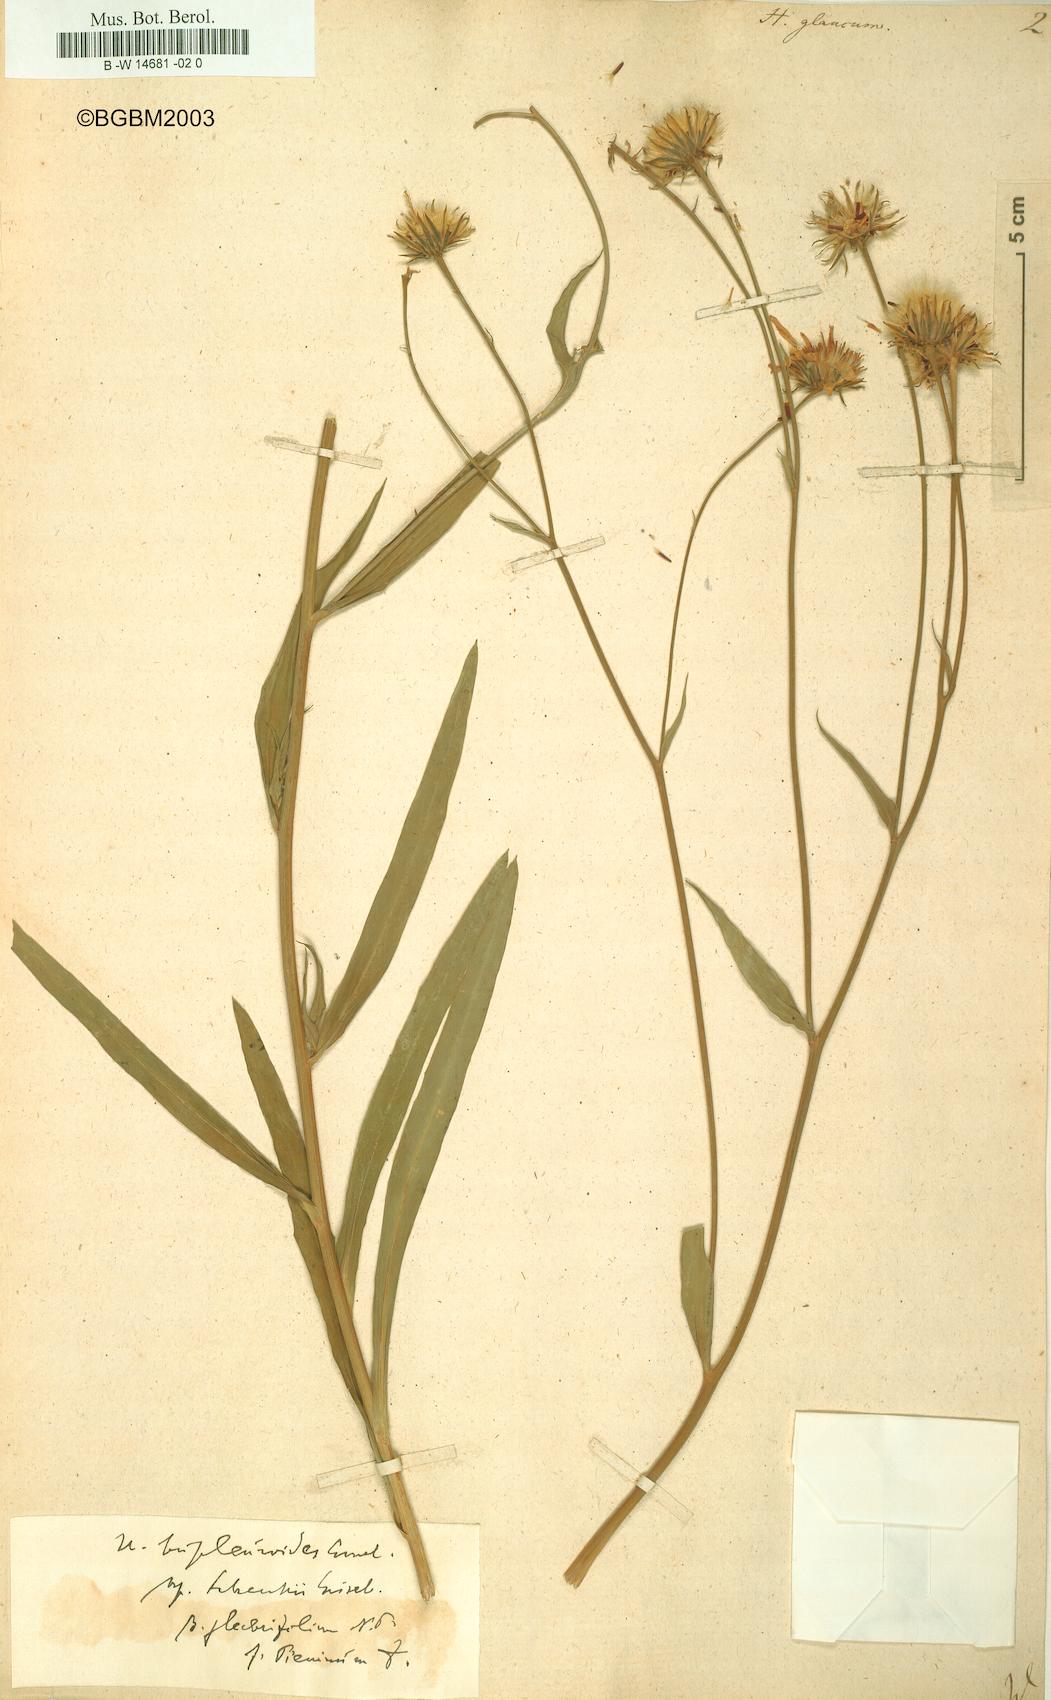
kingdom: Plantae
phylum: Tracheophyta
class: Magnoliopsida
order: Asterales
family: Asteraceae
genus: Hieracium
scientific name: Hieracium glaucum
